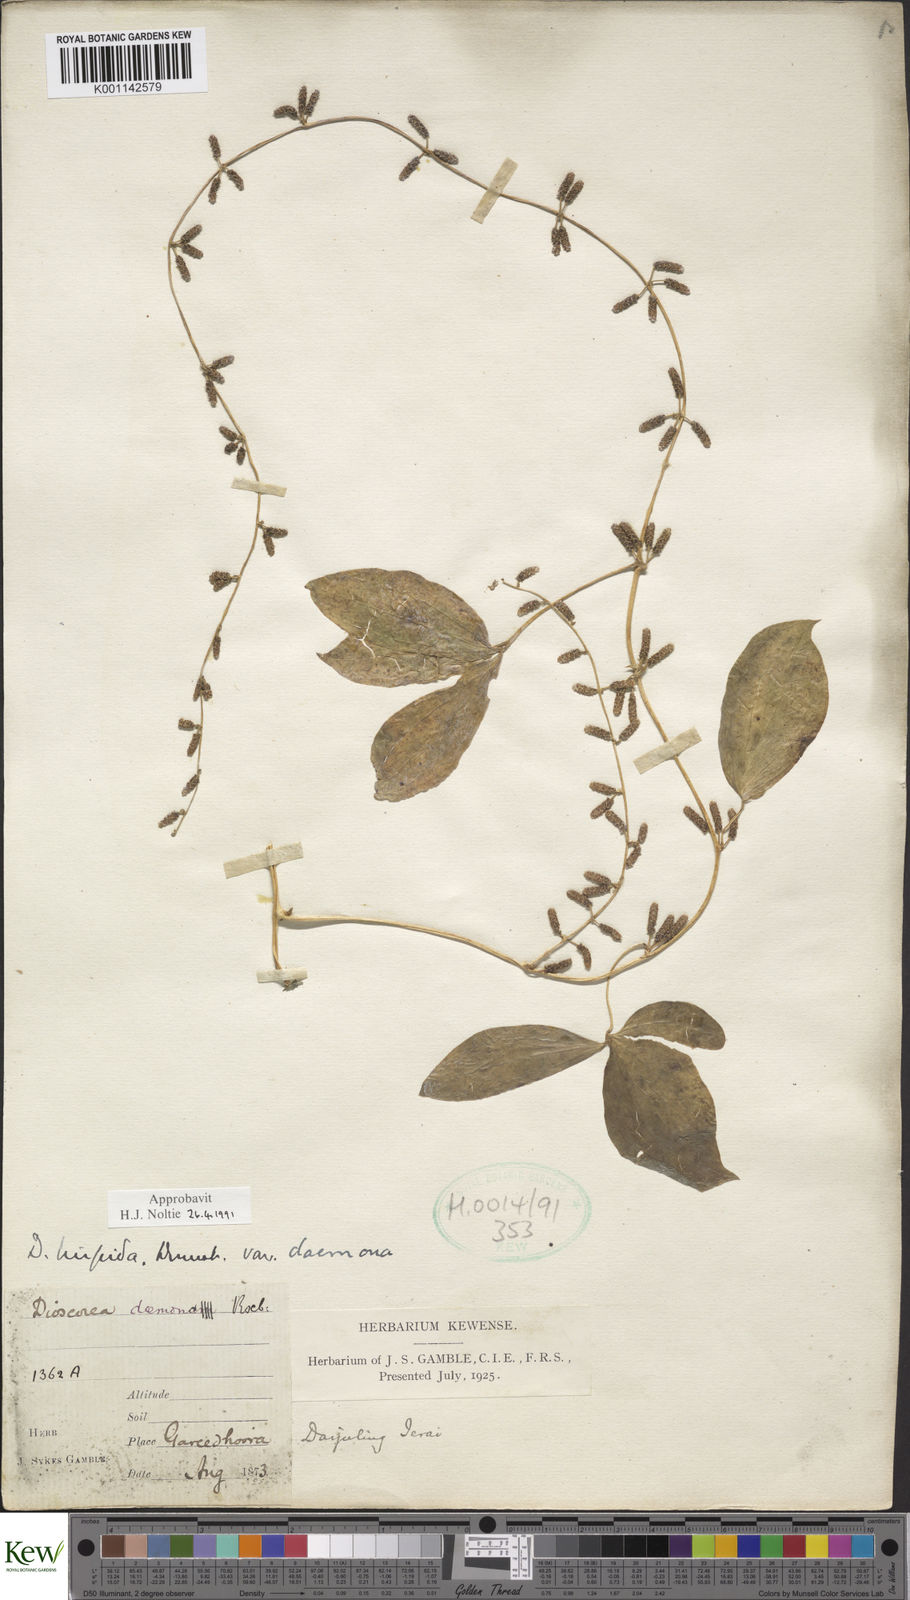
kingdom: Plantae
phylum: Tracheophyta
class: Liliopsida
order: Dioscoreales
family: Dioscoreaceae
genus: Dioscorea
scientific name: Dioscorea pentaphylla
